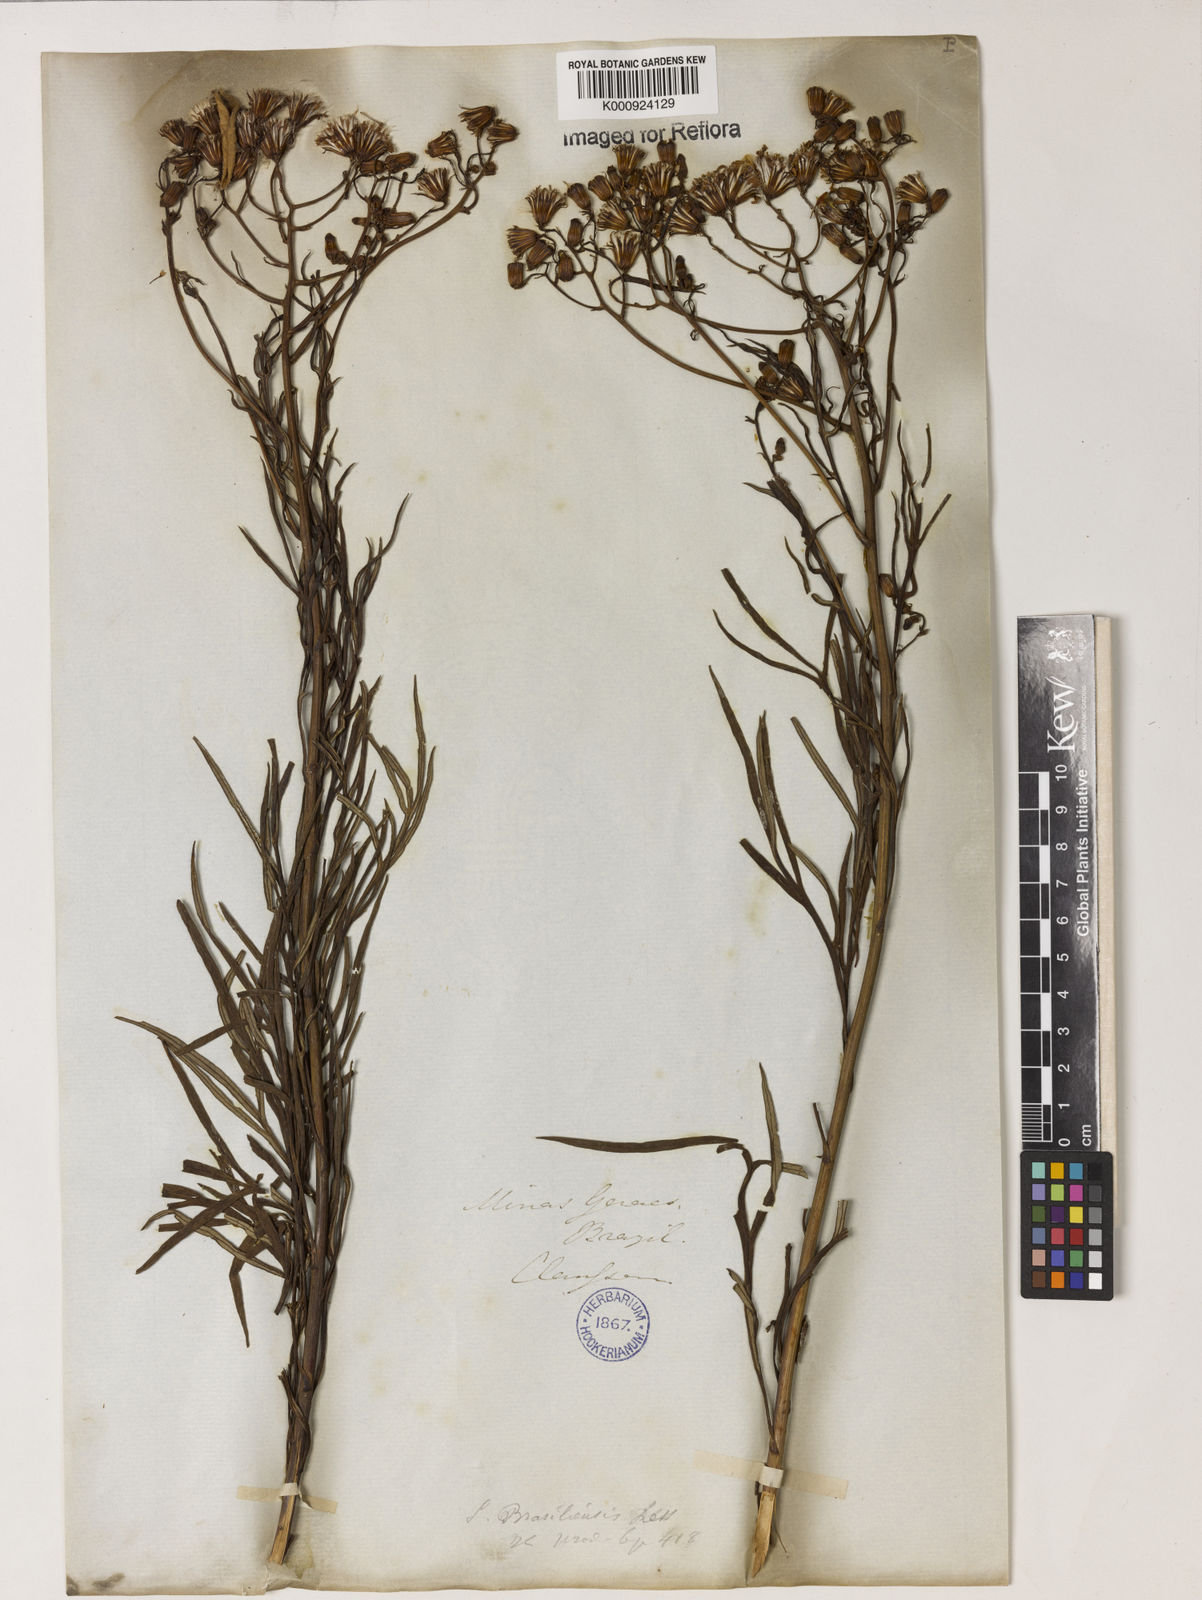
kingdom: Plantae
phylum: Tracheophyta
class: Magnoliopsida
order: Asterales
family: Asteraceae
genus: Senecio
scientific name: Senecio brasiliensis
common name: Hemp-leaf ragwort
